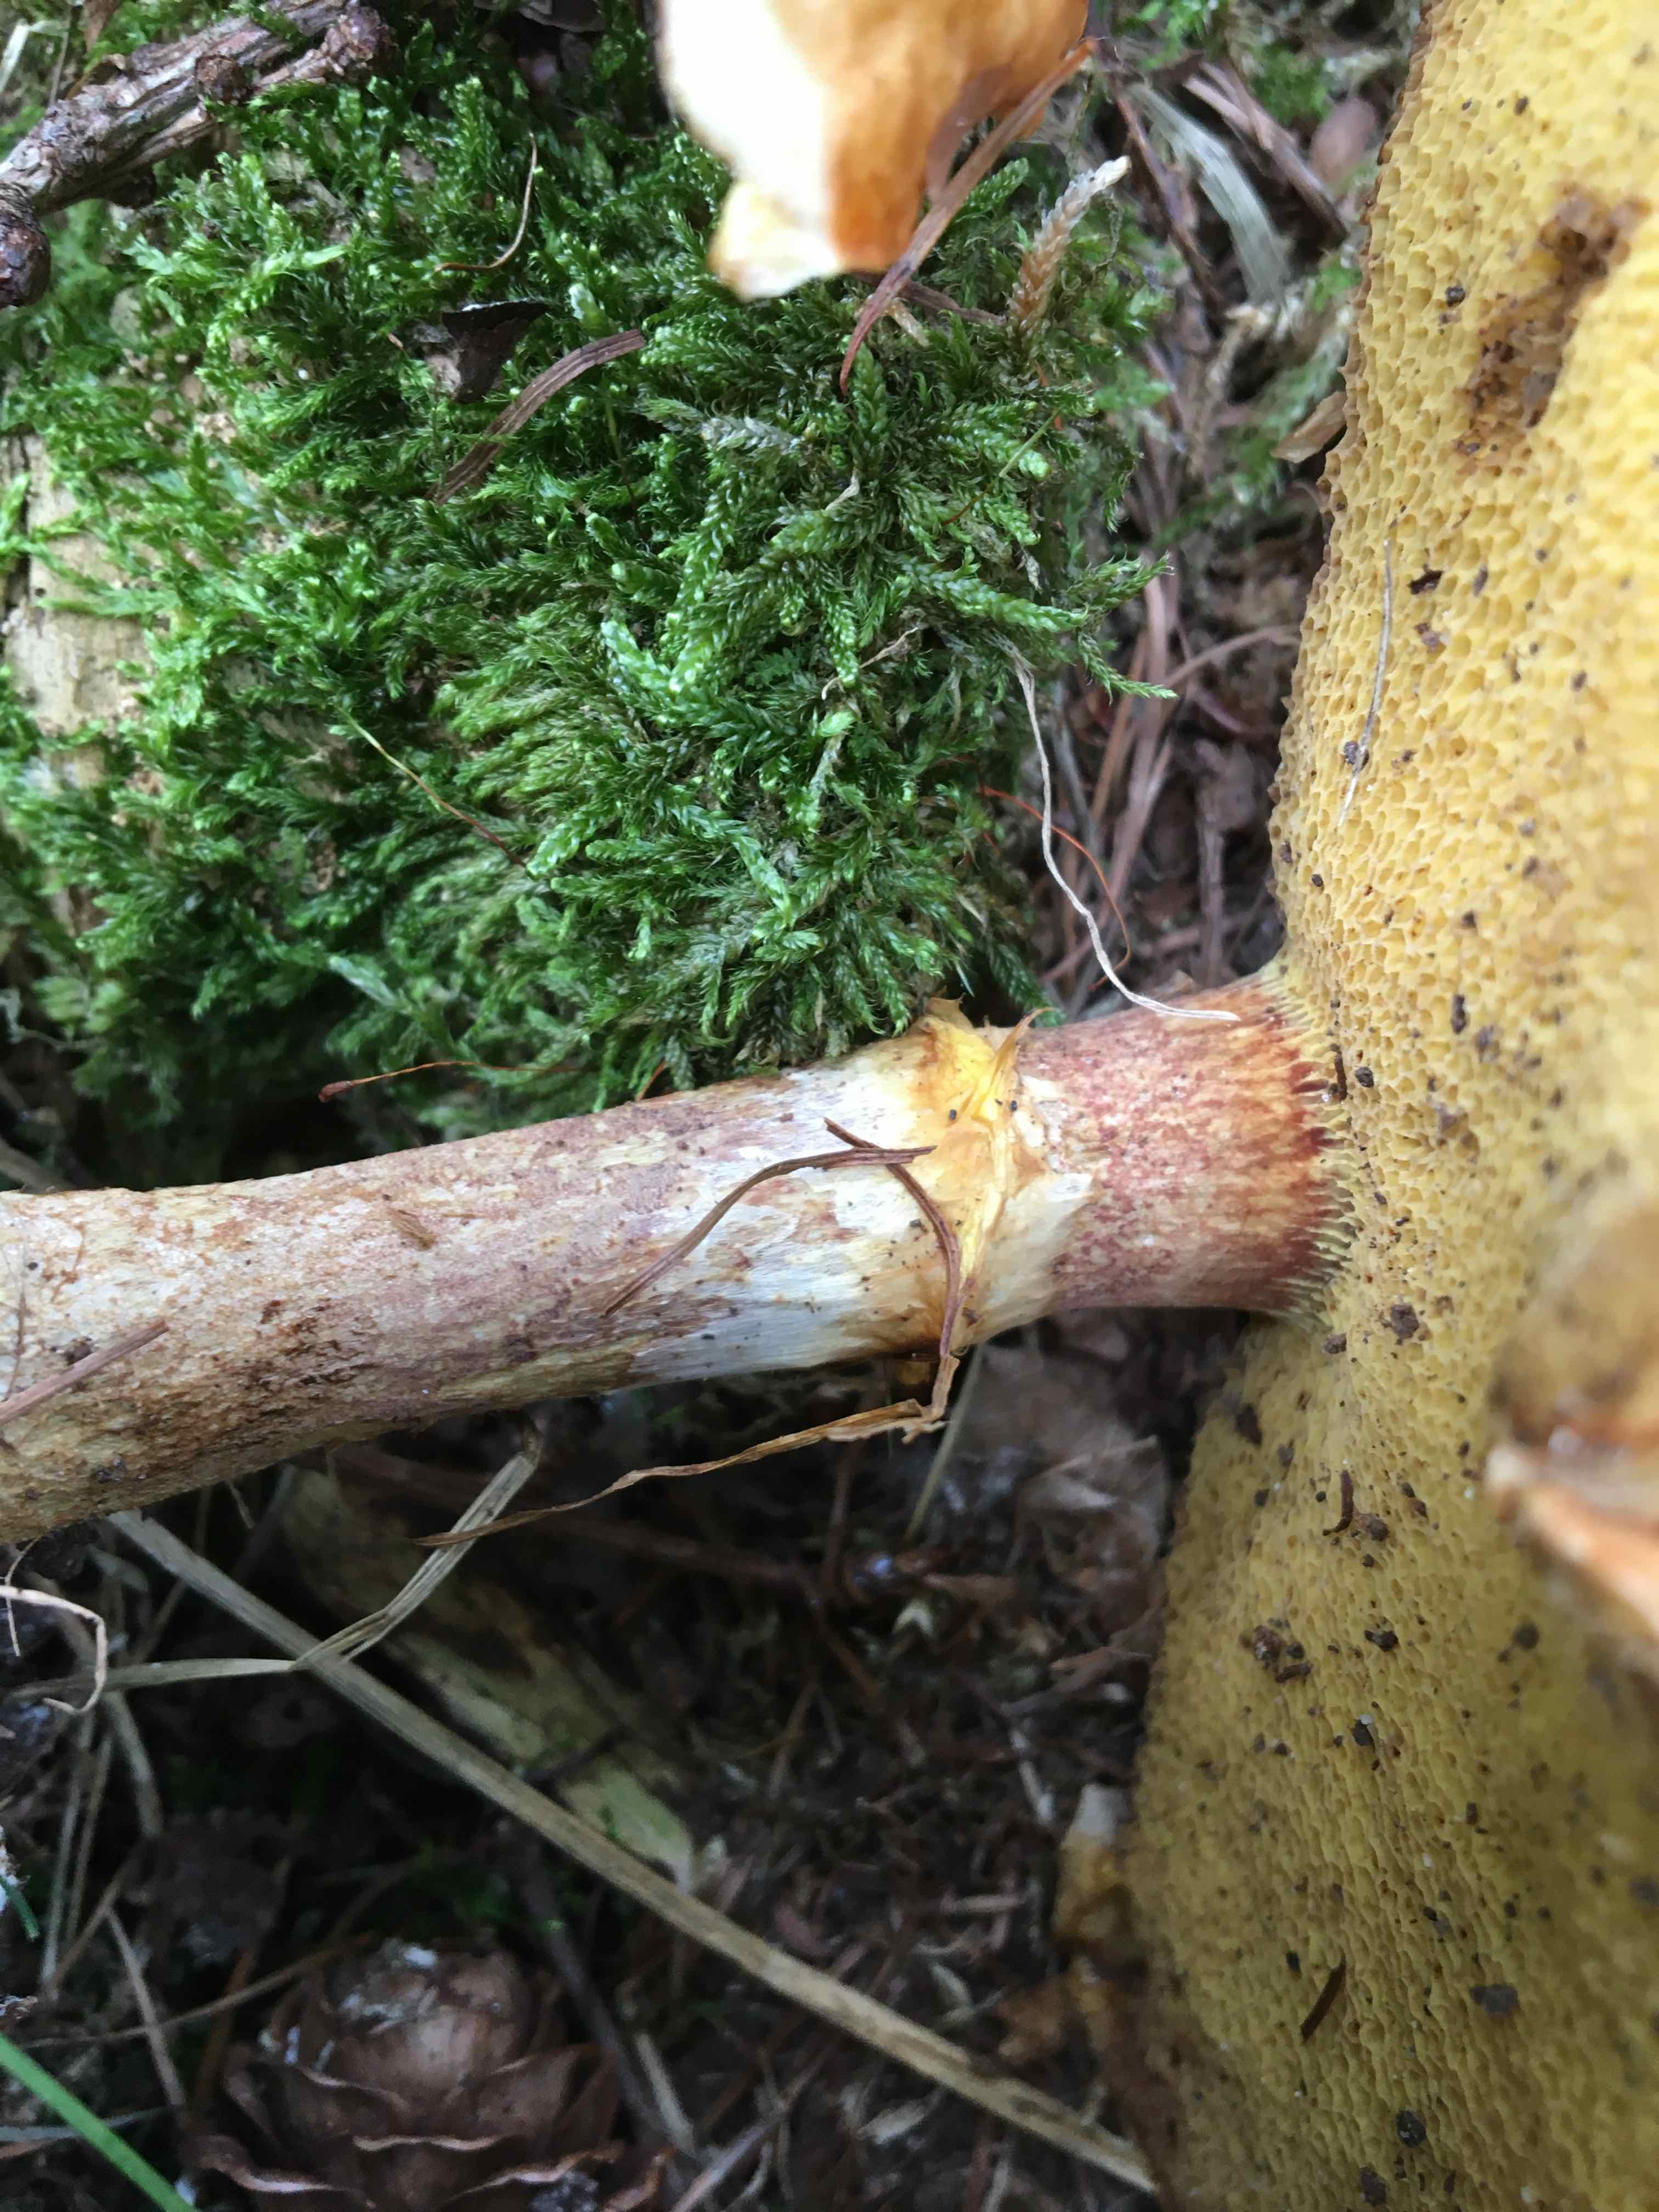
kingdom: Fungi
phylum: Basidiomycota
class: Agaricomycetes
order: Boletales
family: Suillaceae
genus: Suillus
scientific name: Suillus grevillei
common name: lærke-slimrørhat
